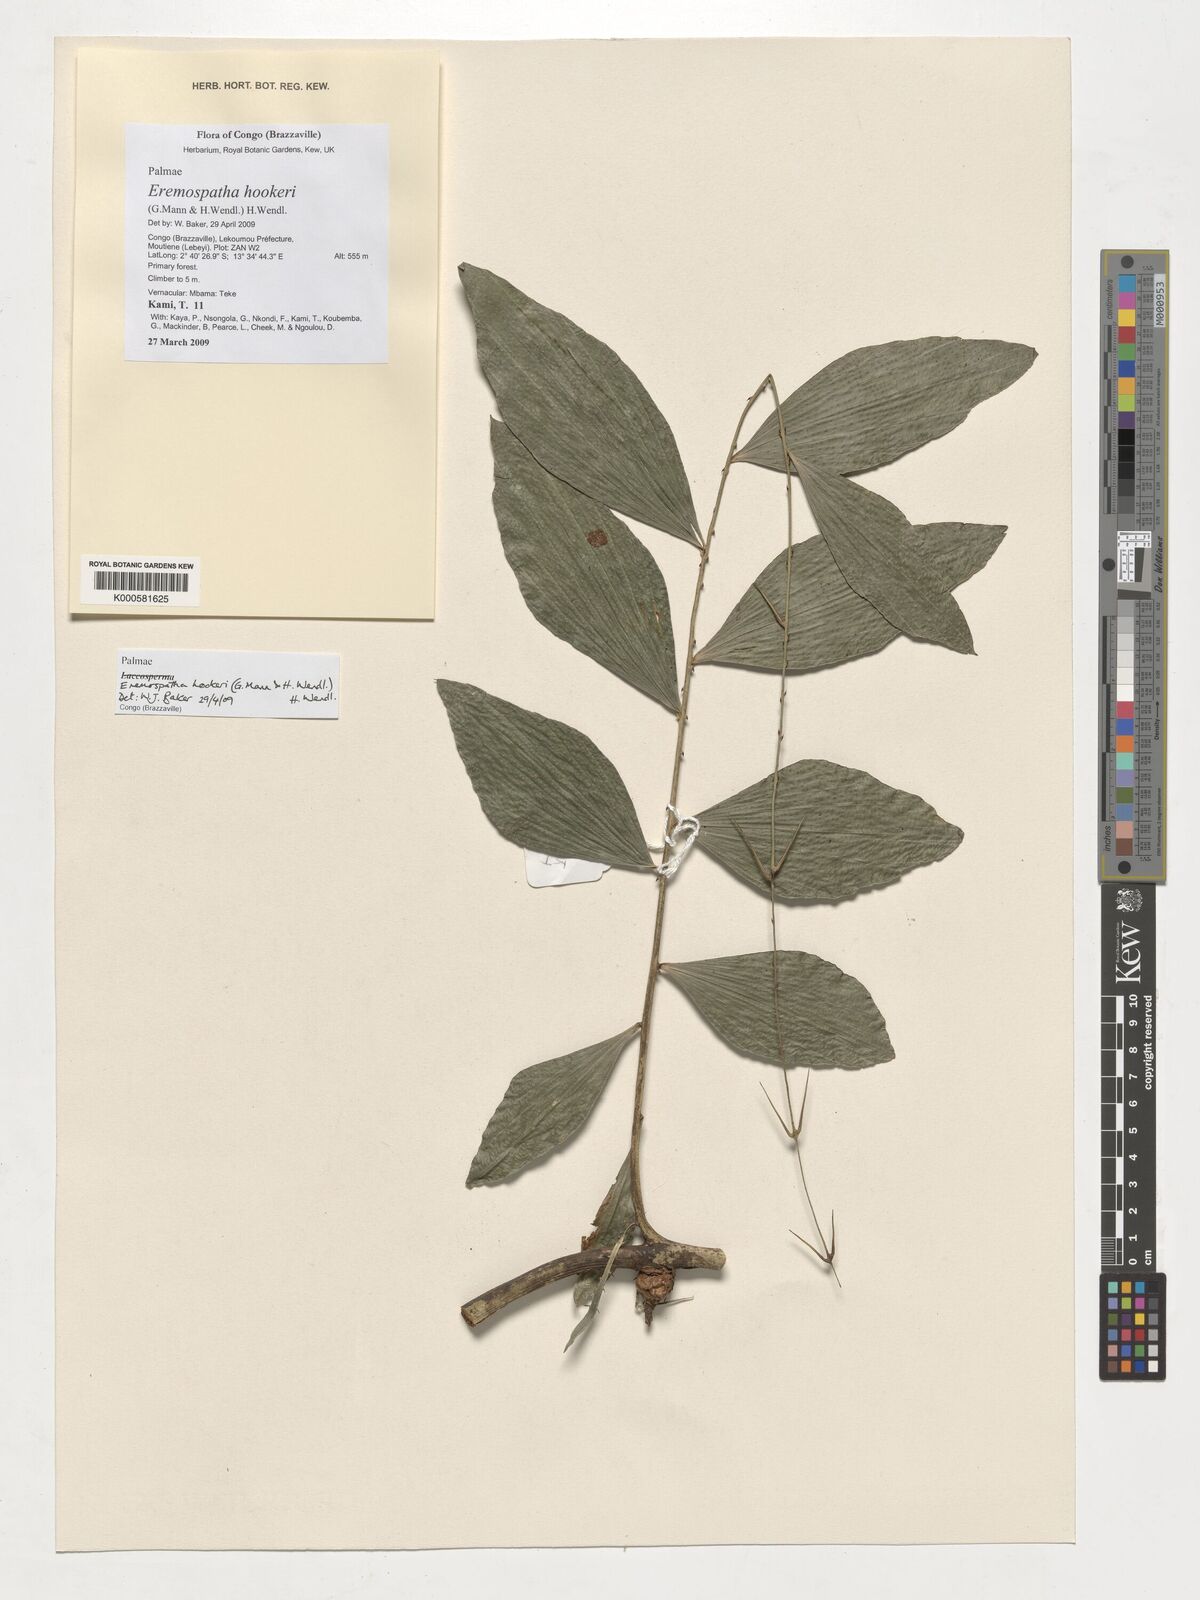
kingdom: Plantae
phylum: Tracheophyta
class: Liliopsida
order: Arecales
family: Arecaceae
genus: Eremospatha
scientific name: Eremospatha hookeri
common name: Rattan
